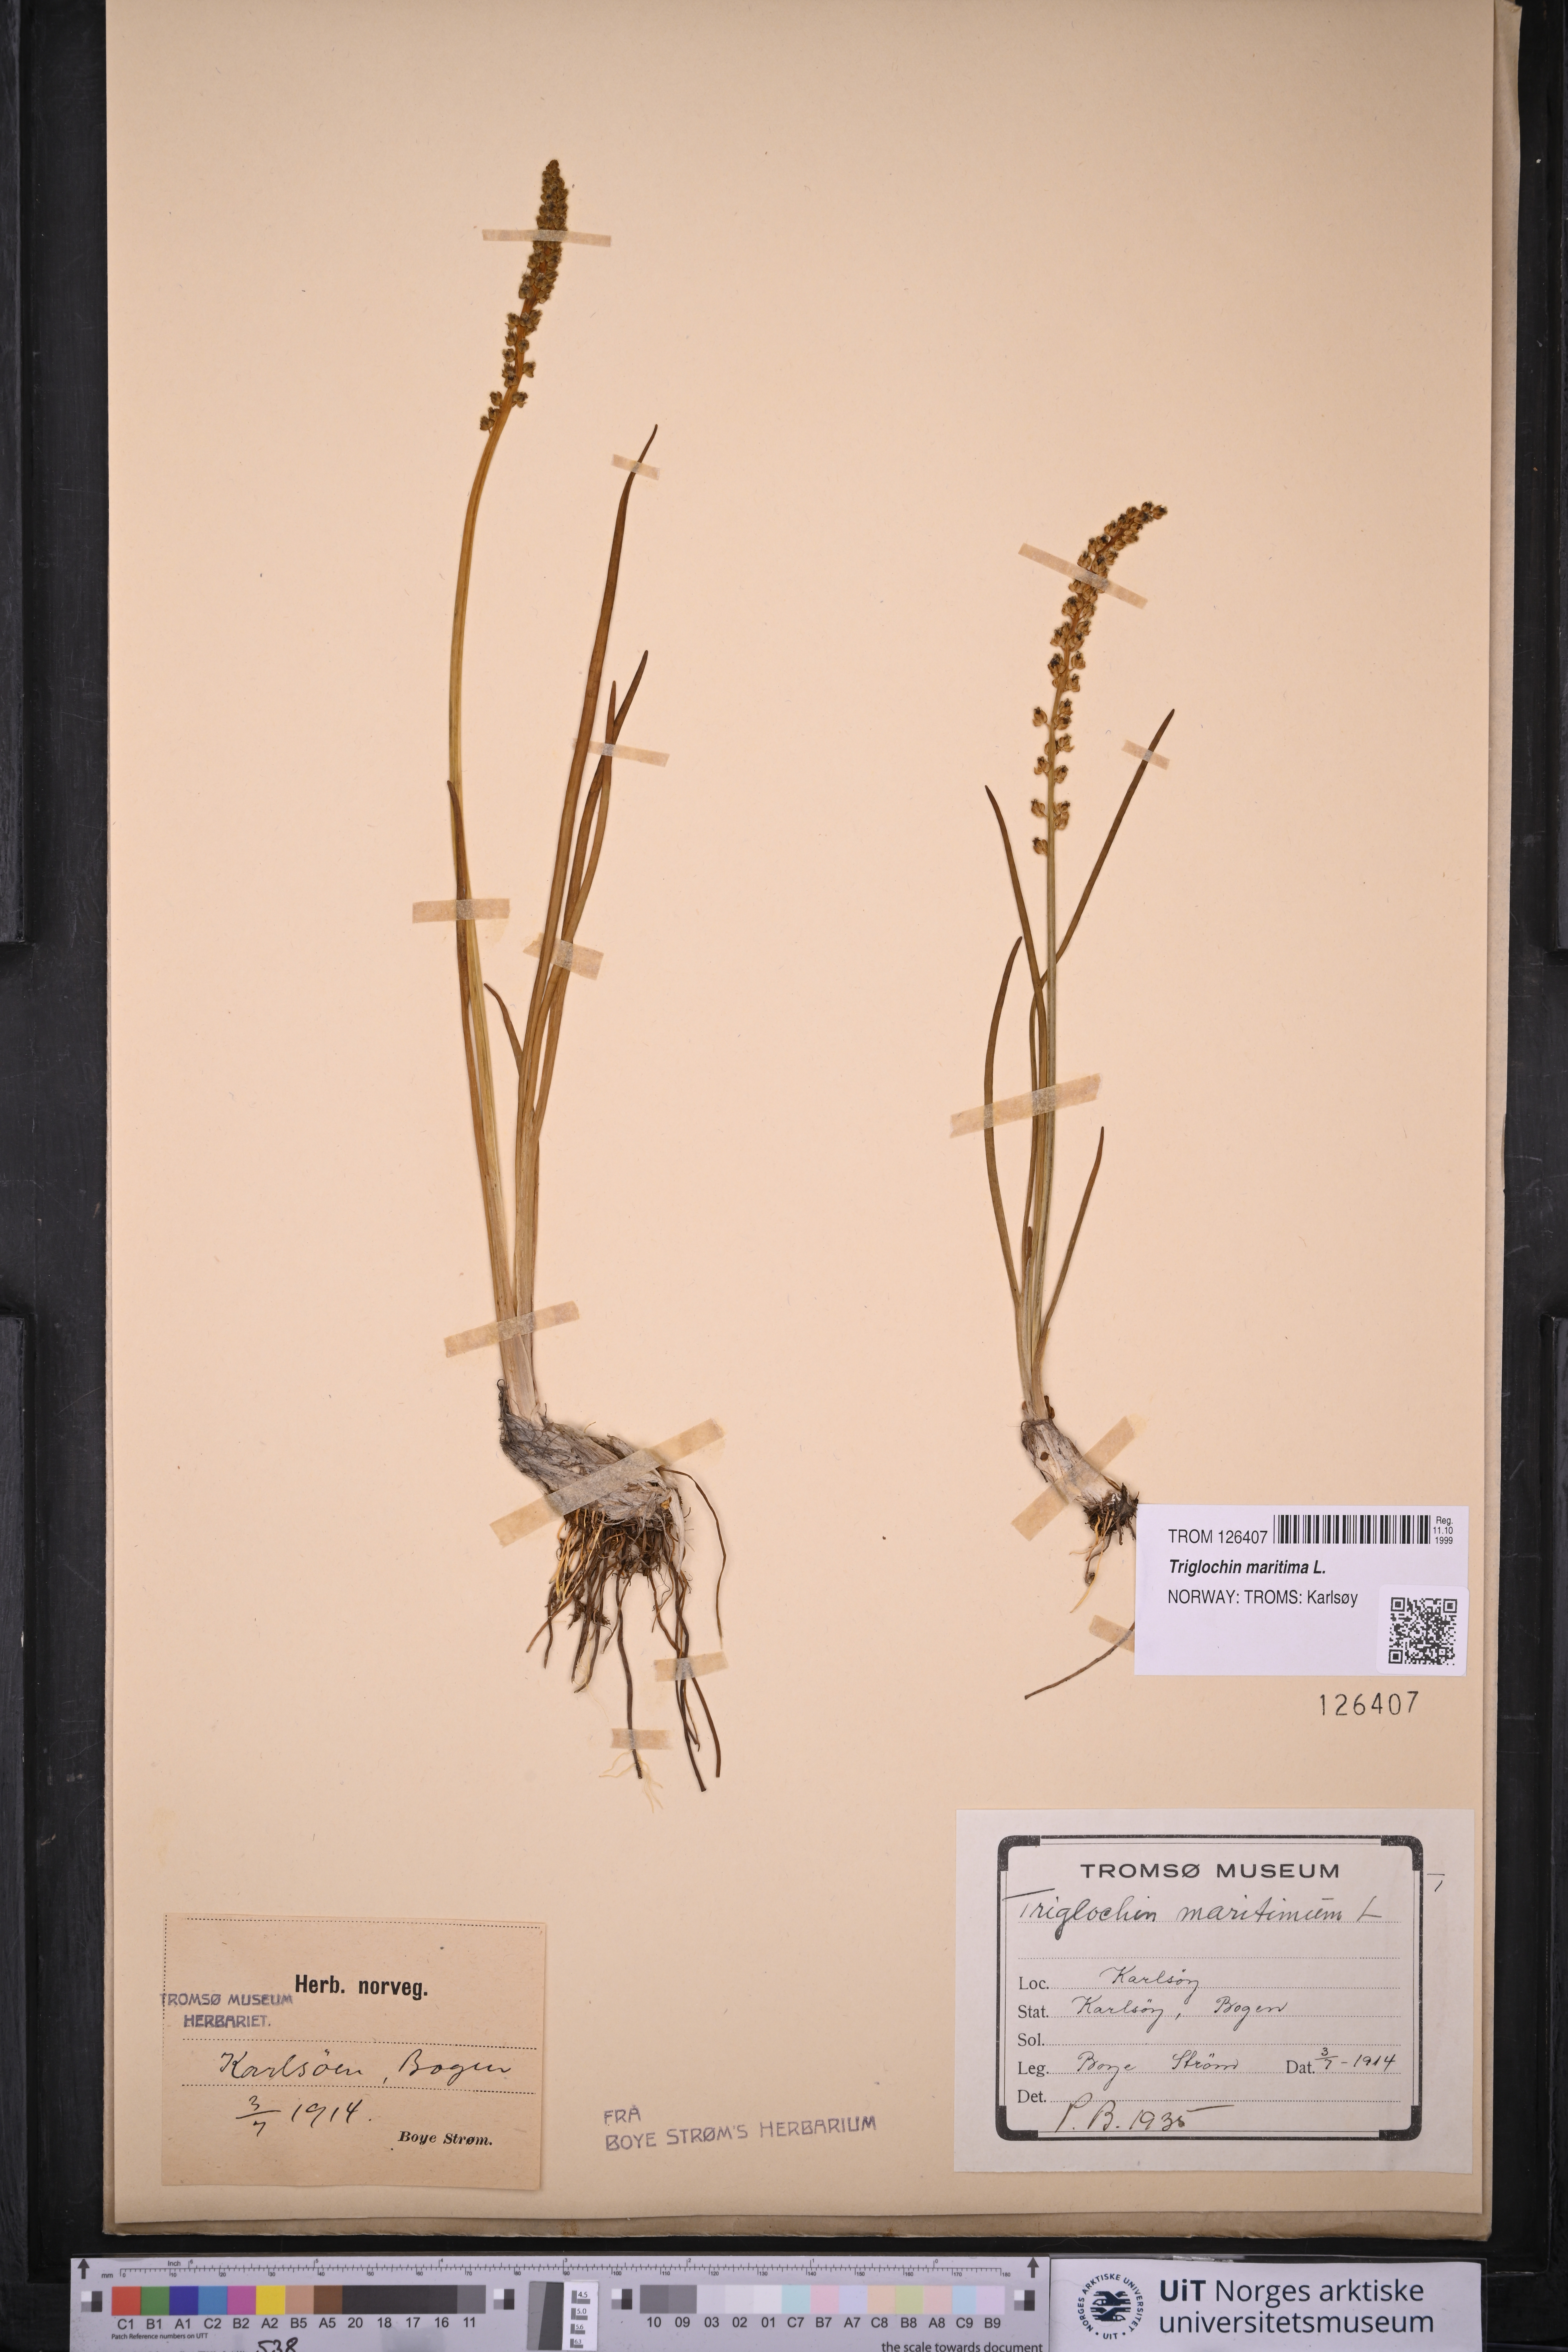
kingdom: Plantae
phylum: Tracheophyta
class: Liliopsida
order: Alismatales
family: Juncaginaceae
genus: Triglochin
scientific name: Triglochin maritima
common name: Sea arrowgrass
